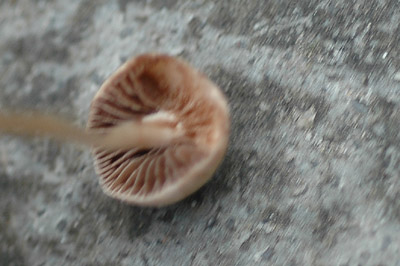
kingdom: Fungi
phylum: Basidiomycota
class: Agaricomycetes
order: Agaricales
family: Bolbitiaceae
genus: Panaeolina
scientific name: Panaeolina foenisecii
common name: høslætsvamp
